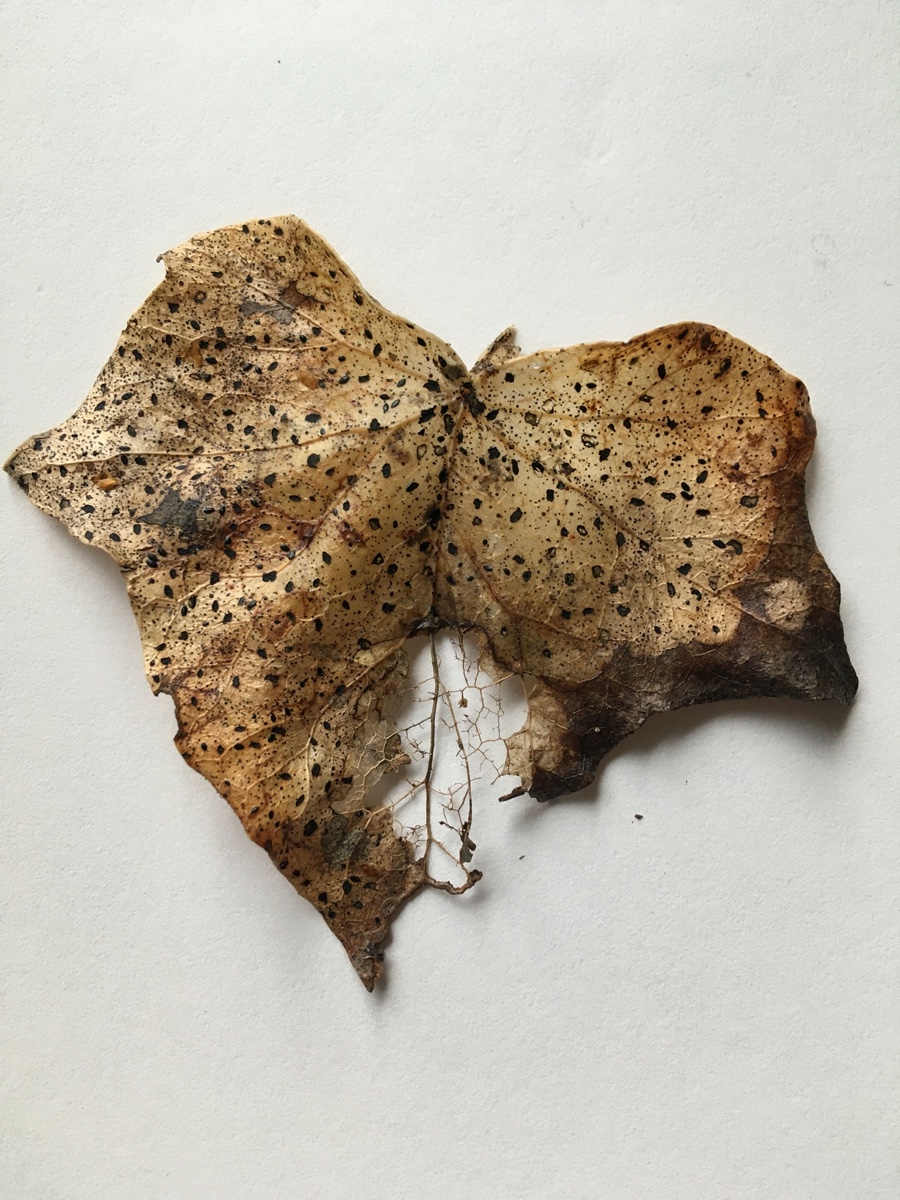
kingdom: Fungi
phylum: Ascomycota
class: Leotiomycetes
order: Helotiales
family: Cenangiaceae
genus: Trochila
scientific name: Trochila craterium
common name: vedbend-lågskive
